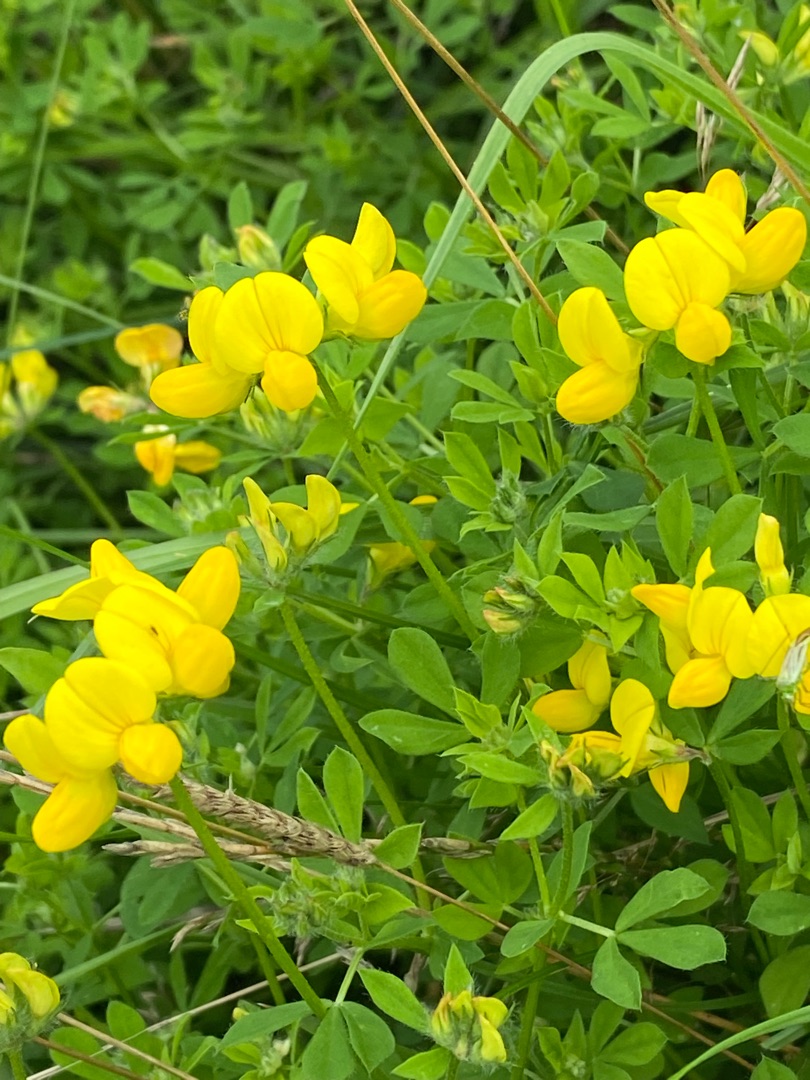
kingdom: Plantae
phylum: Tracheophyta
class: Magnoliopsida
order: Fabales
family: Fabaceae
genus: Lotus
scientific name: Lotus corniculatus
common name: Almindelig kællingetand
